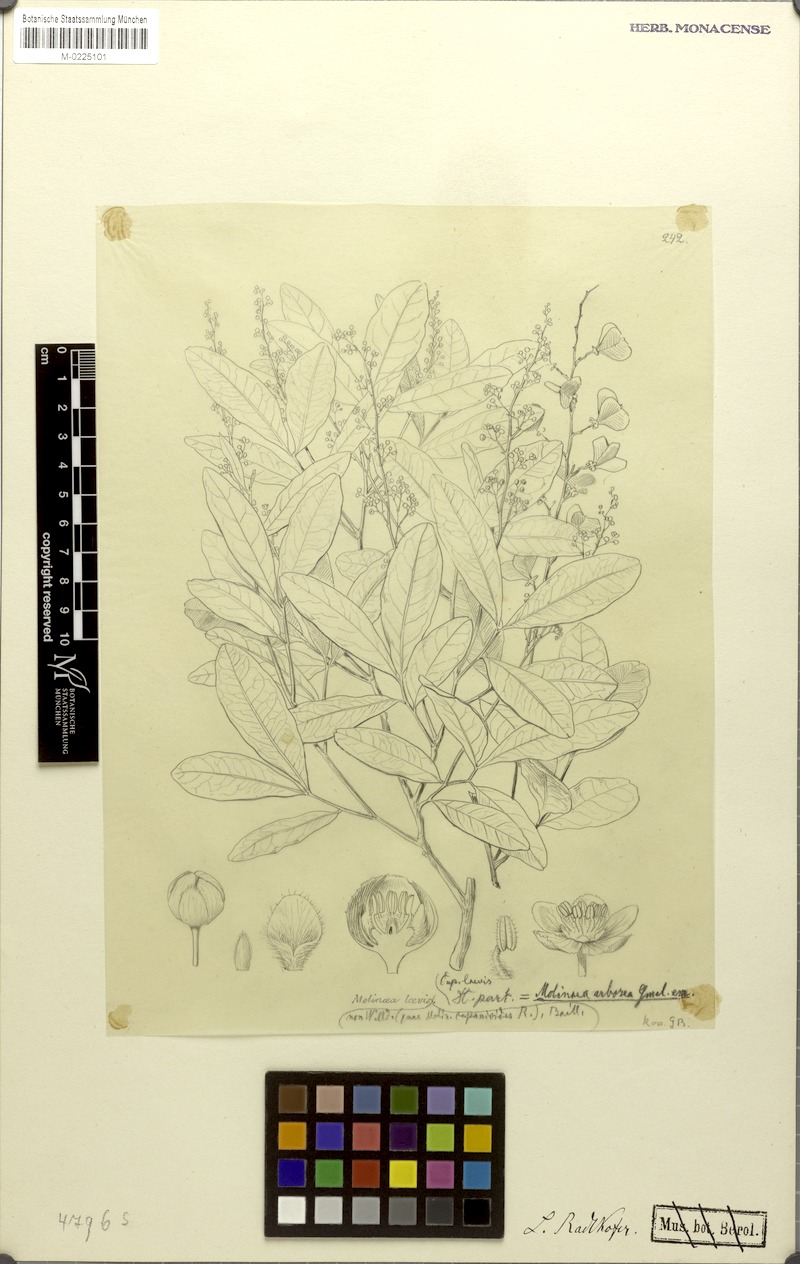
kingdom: Plantae
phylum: Tracheophyta
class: Magnoliopsida
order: Sapindales
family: Sapindaceae
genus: Molinaea
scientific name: Molinaea alternifolia
